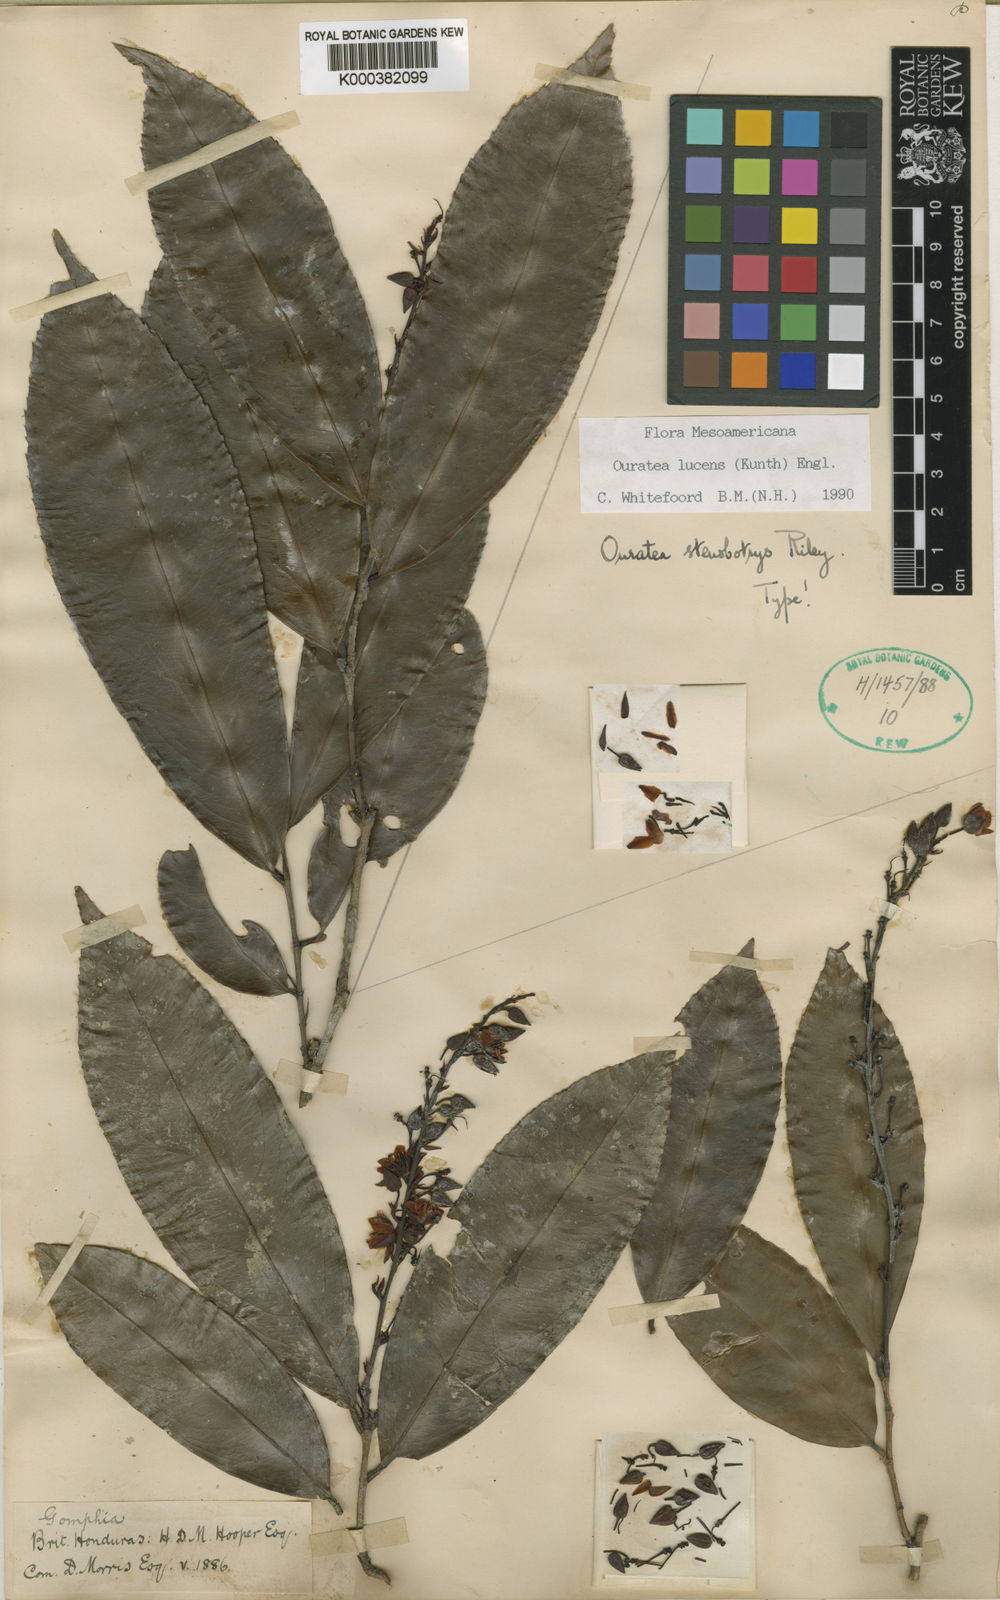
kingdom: Plantae
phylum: Tracheophyta
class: Magnoliopsida
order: Malpighiales
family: Ochnaceae
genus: Ouratea
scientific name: Ouratea lucens
